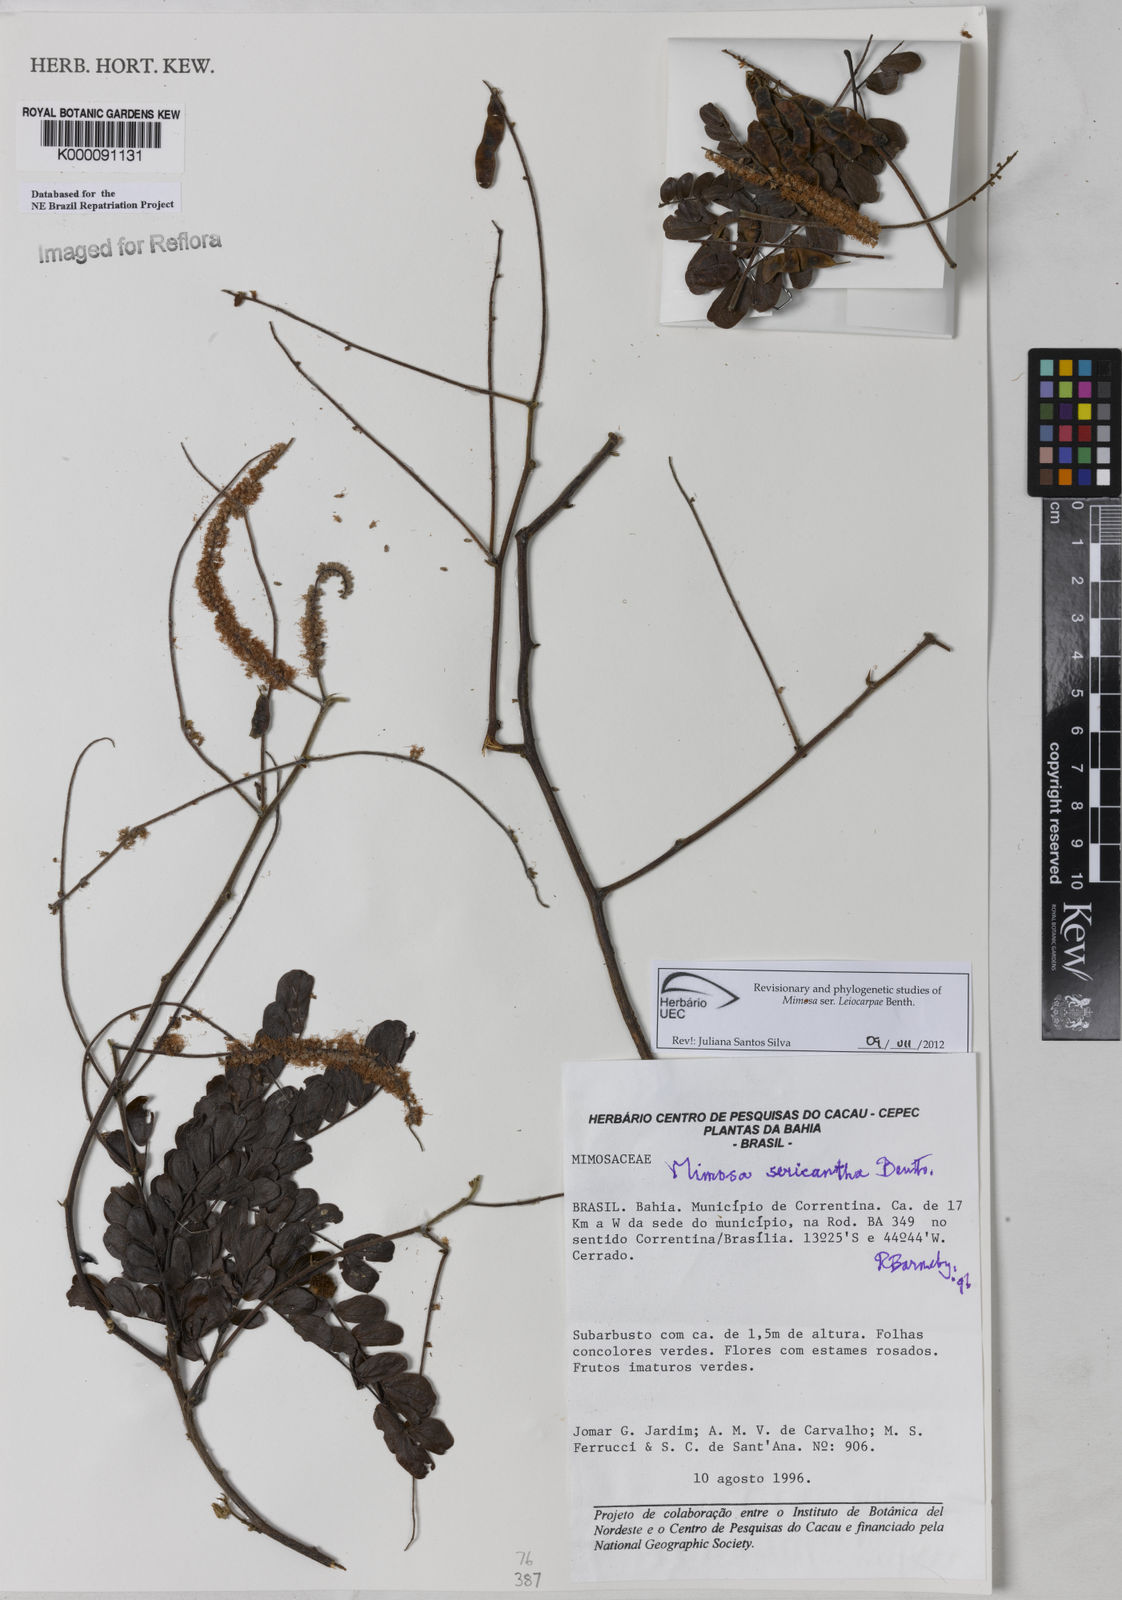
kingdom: Plantae
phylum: Tracheophyta
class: Magnoliopsida
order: Fabales
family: Fabaceae
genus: Mimosa
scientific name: Mimosa sericantha
